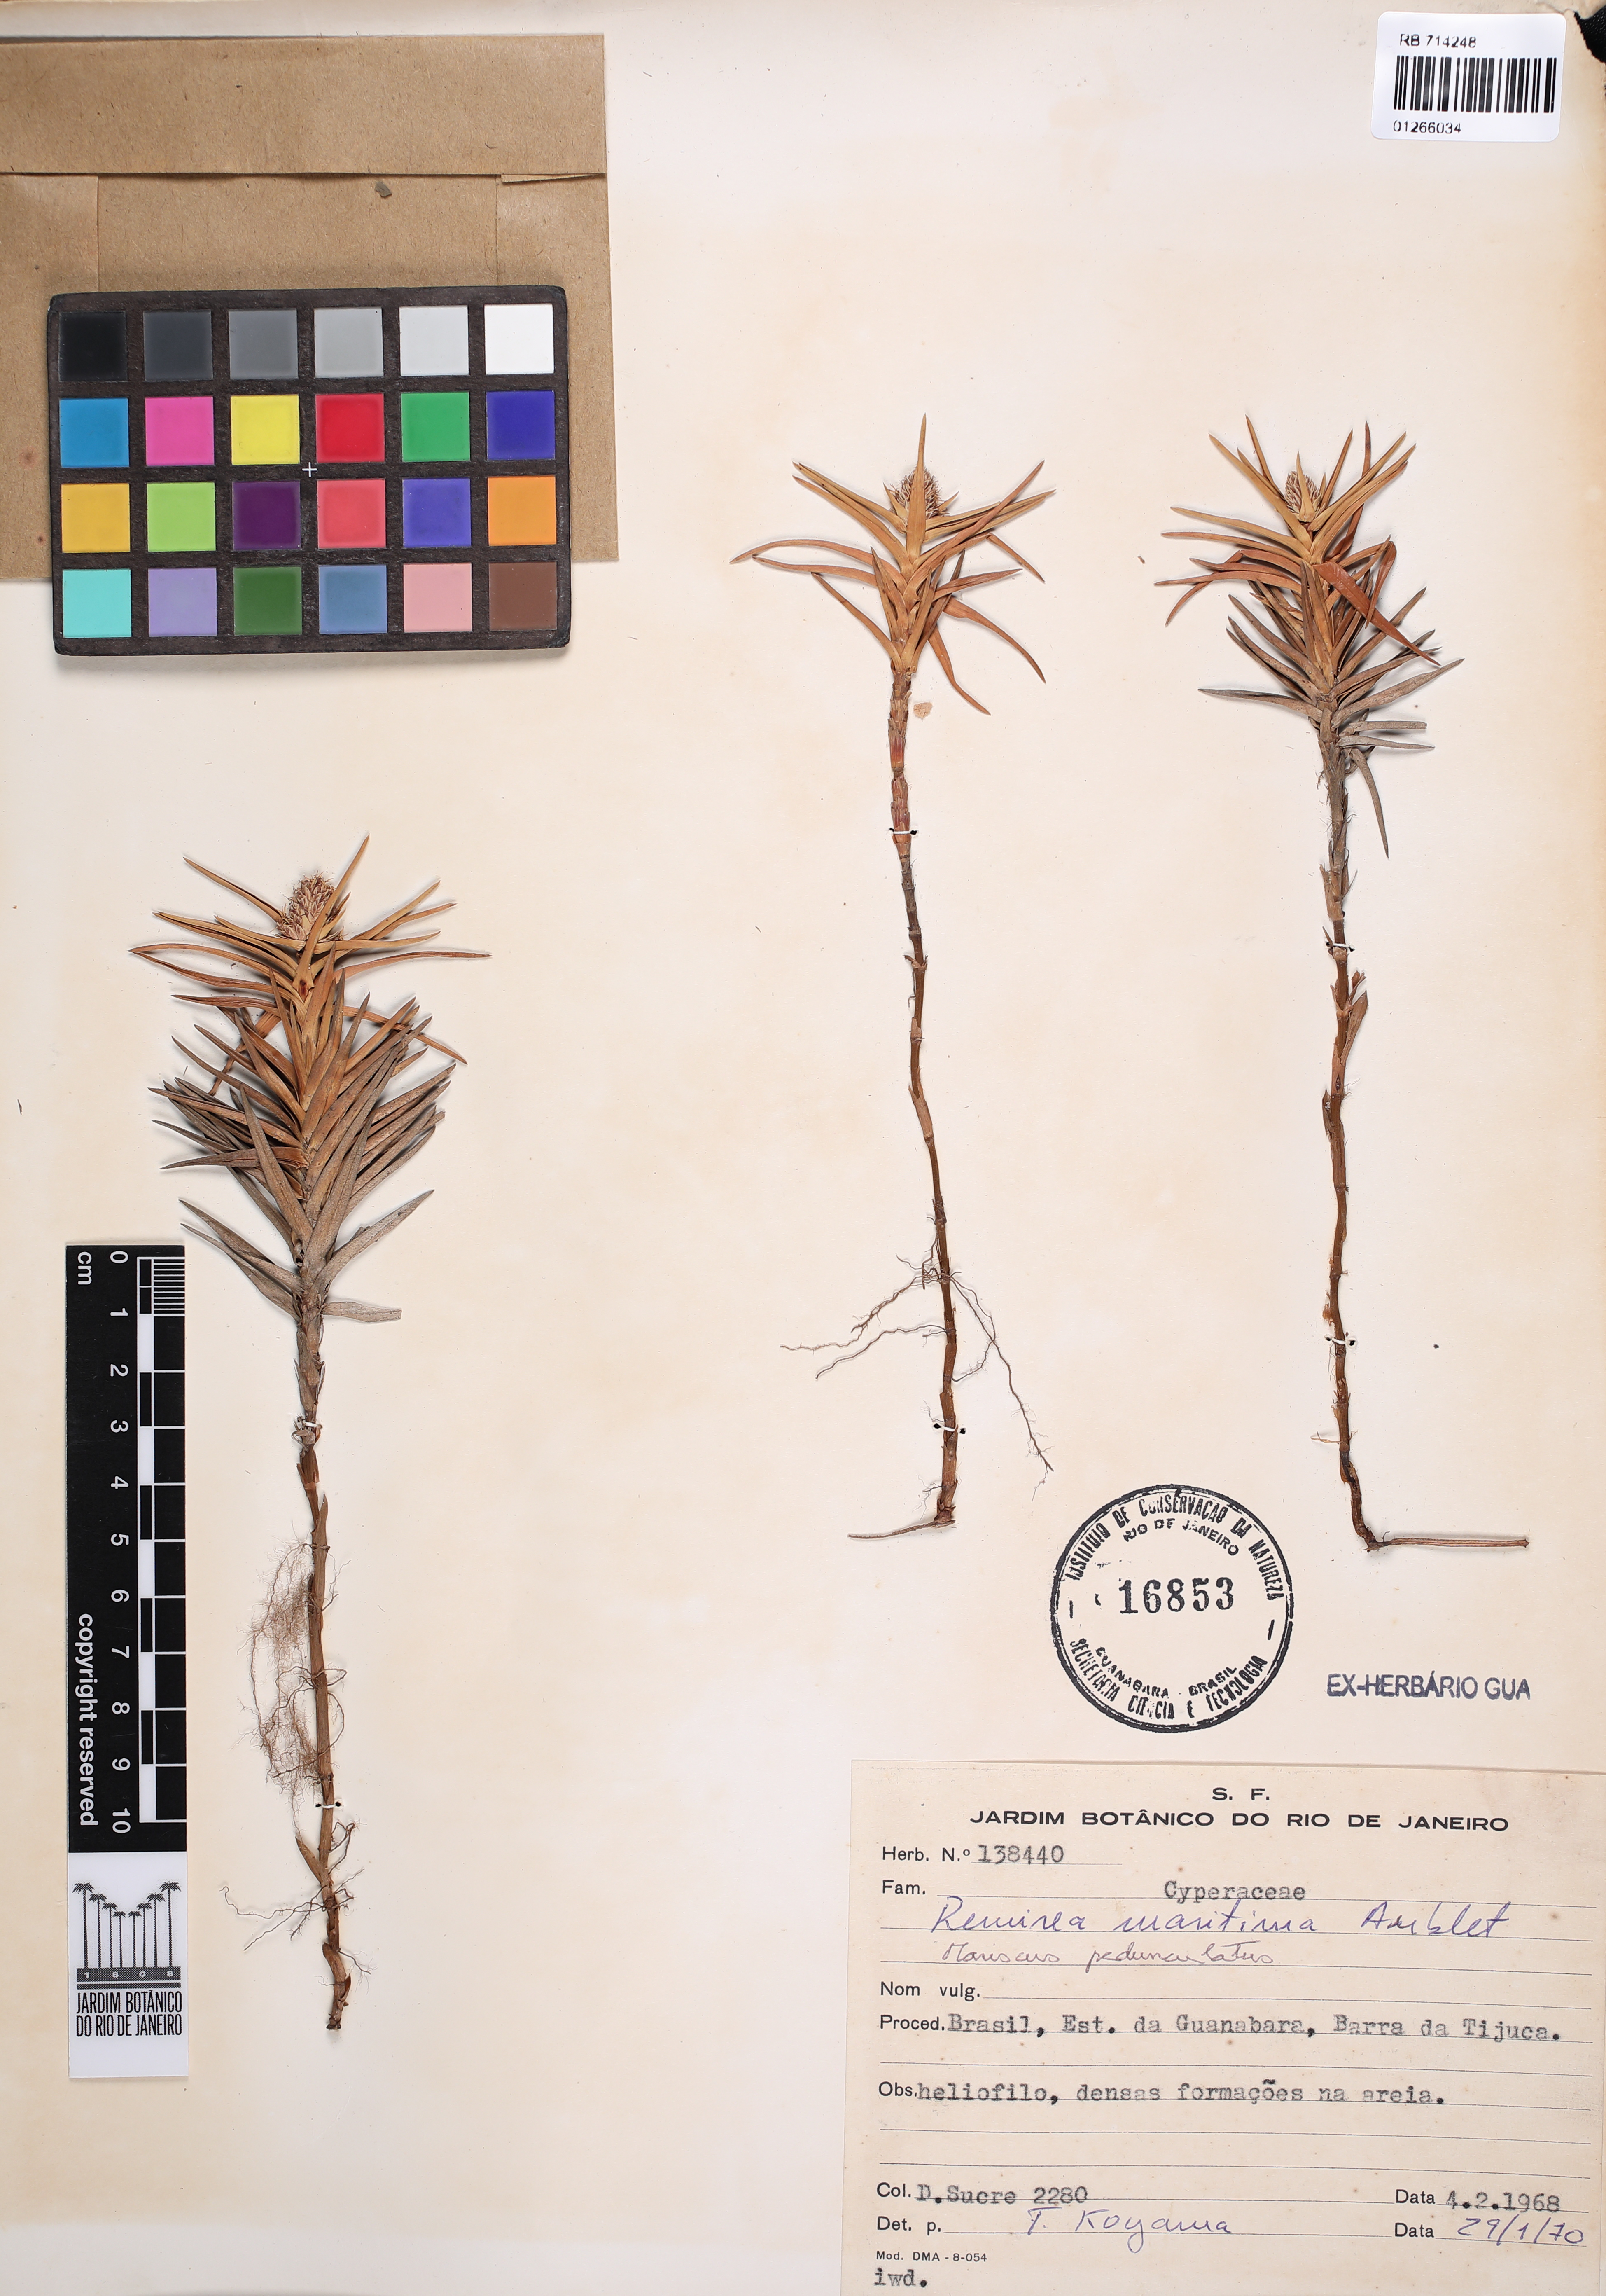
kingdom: Plantae
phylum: Tracheophyta
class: Liliopsida
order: Poales
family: Cyperaceae
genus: Cyperus
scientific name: Cyperus pedunculatus
